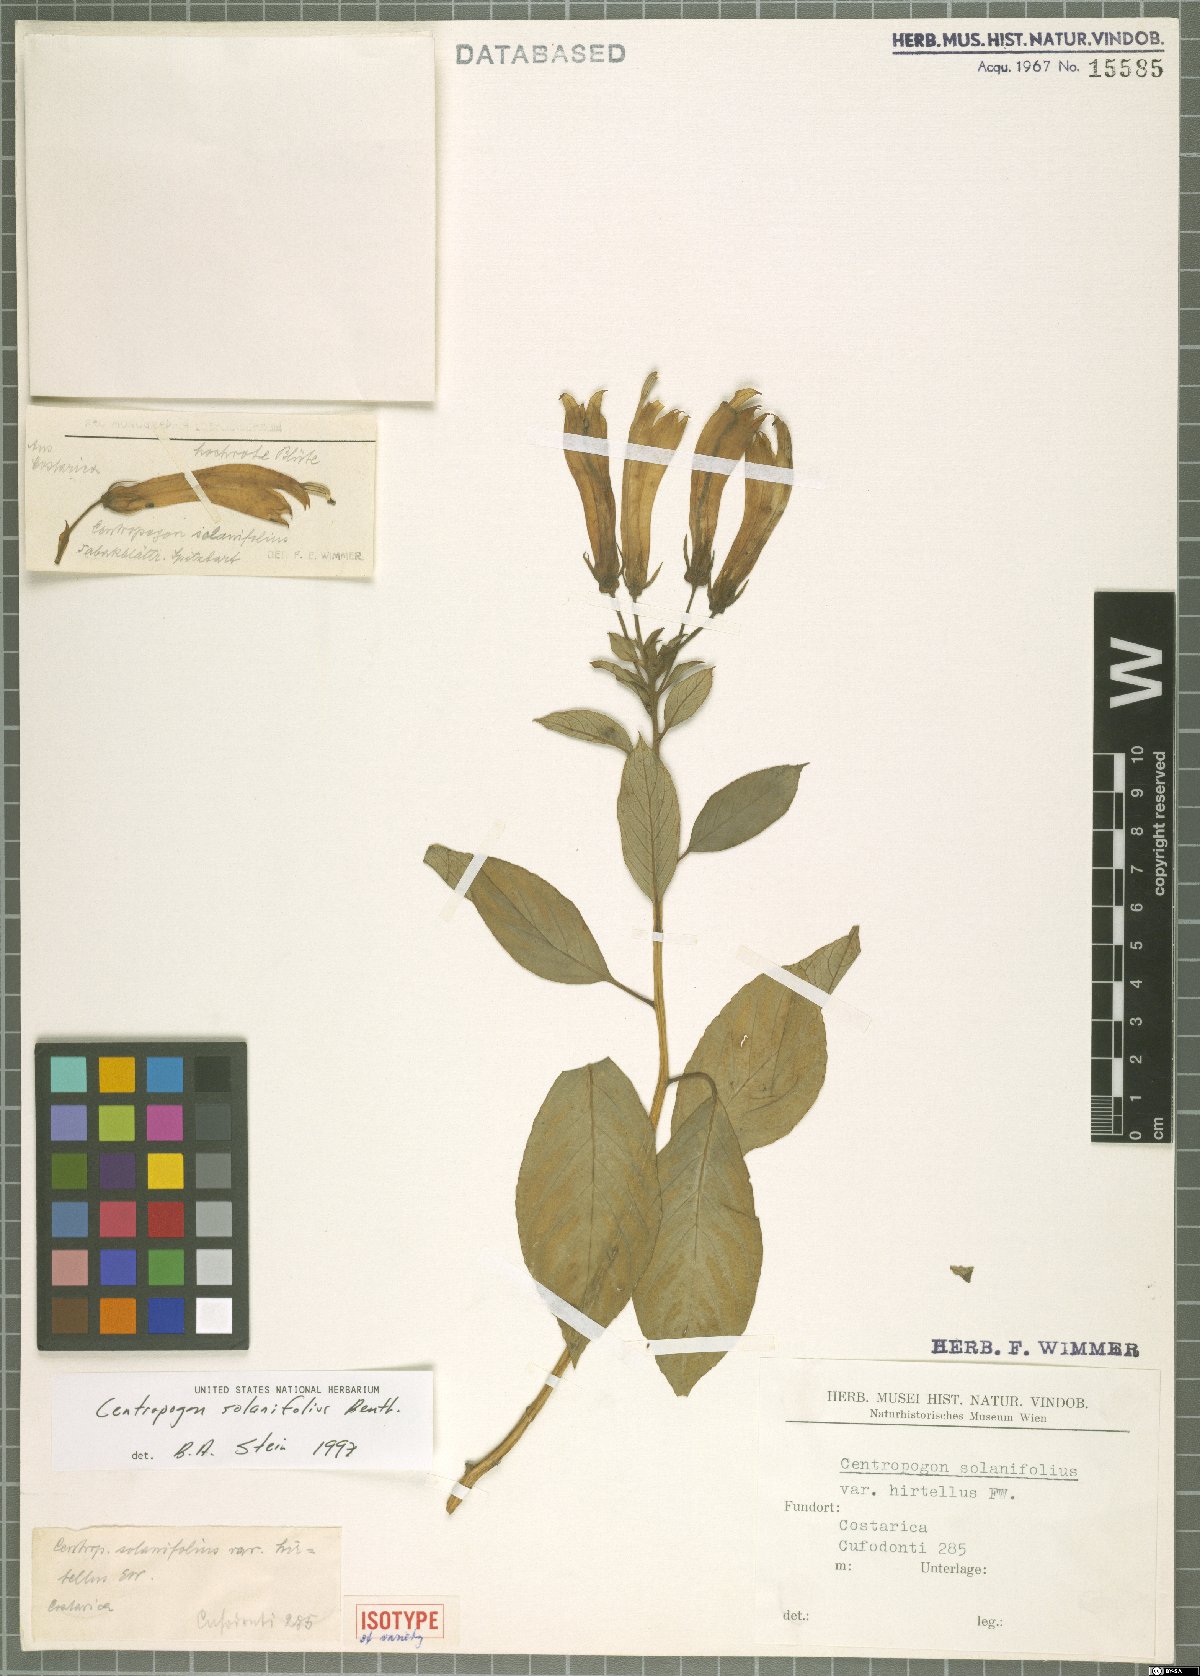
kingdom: Plantae
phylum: Tracheophyta
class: Magnoliopsida
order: Asterales
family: Campanulaceae
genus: Centropogon
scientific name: Centropogon solanifolius
